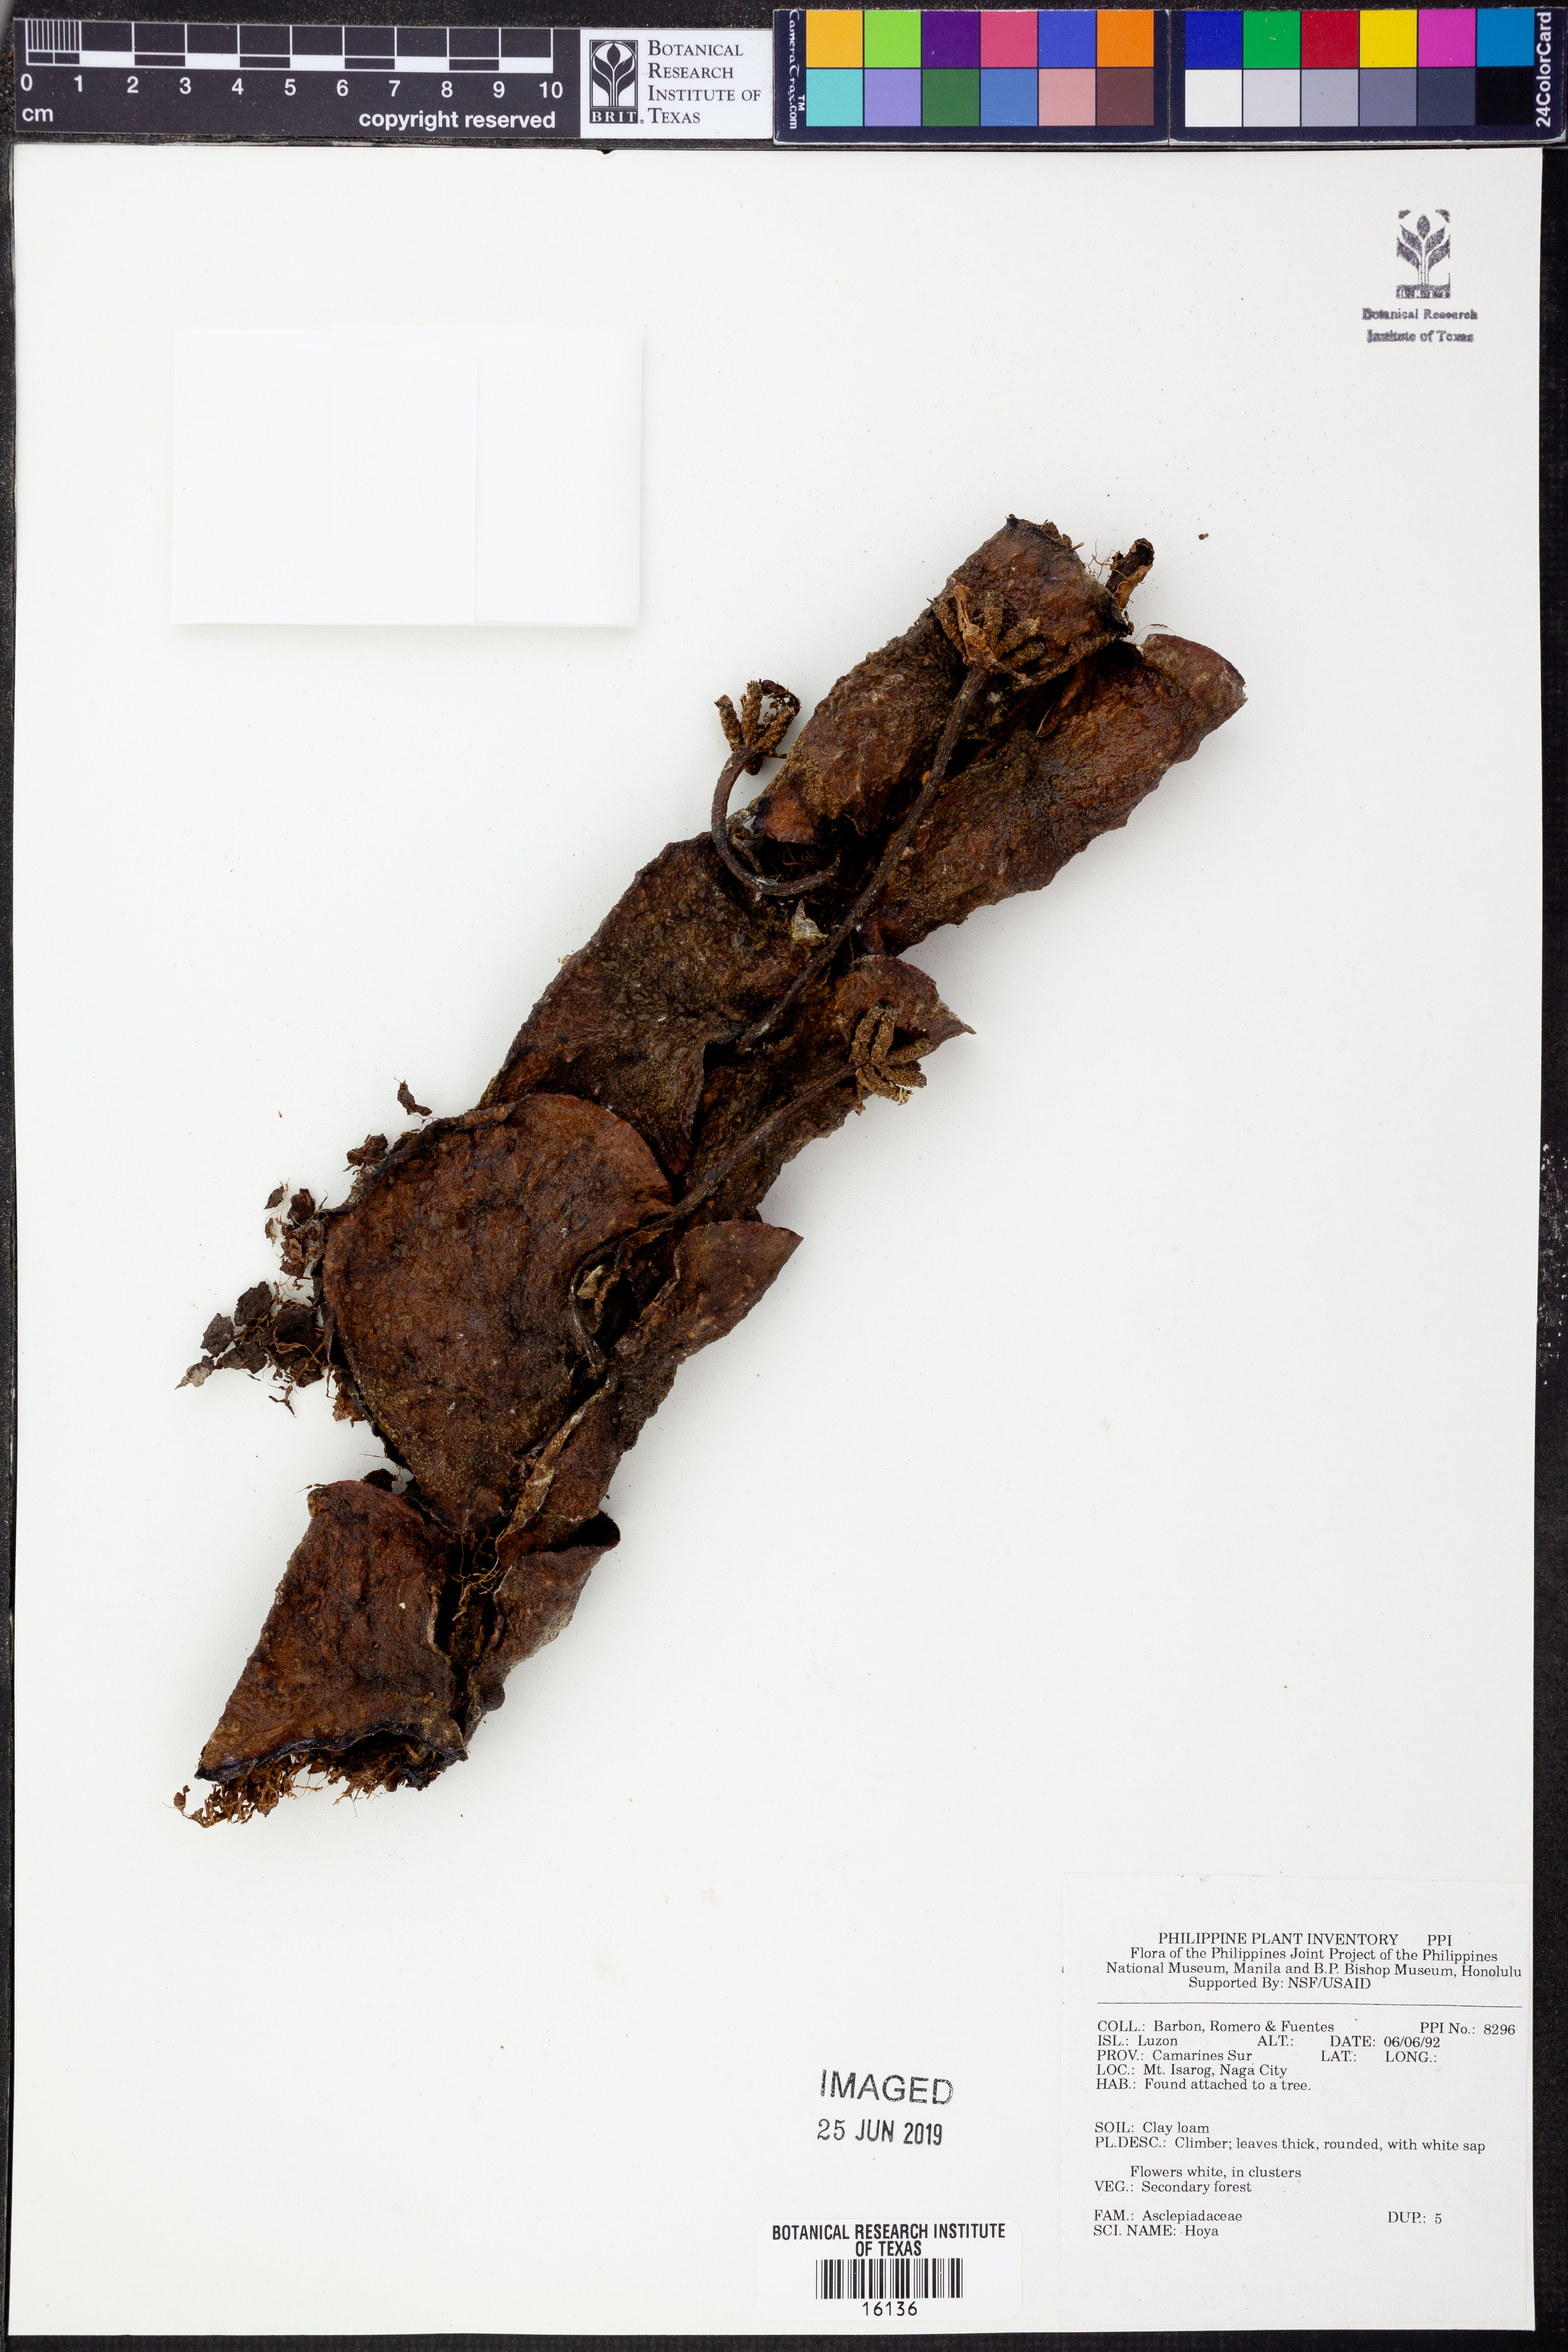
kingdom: Plantae
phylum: Tracheophyta
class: Magnoliopsida
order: Gentianales
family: Apocynaceae
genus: Hoya
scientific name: Hoya
